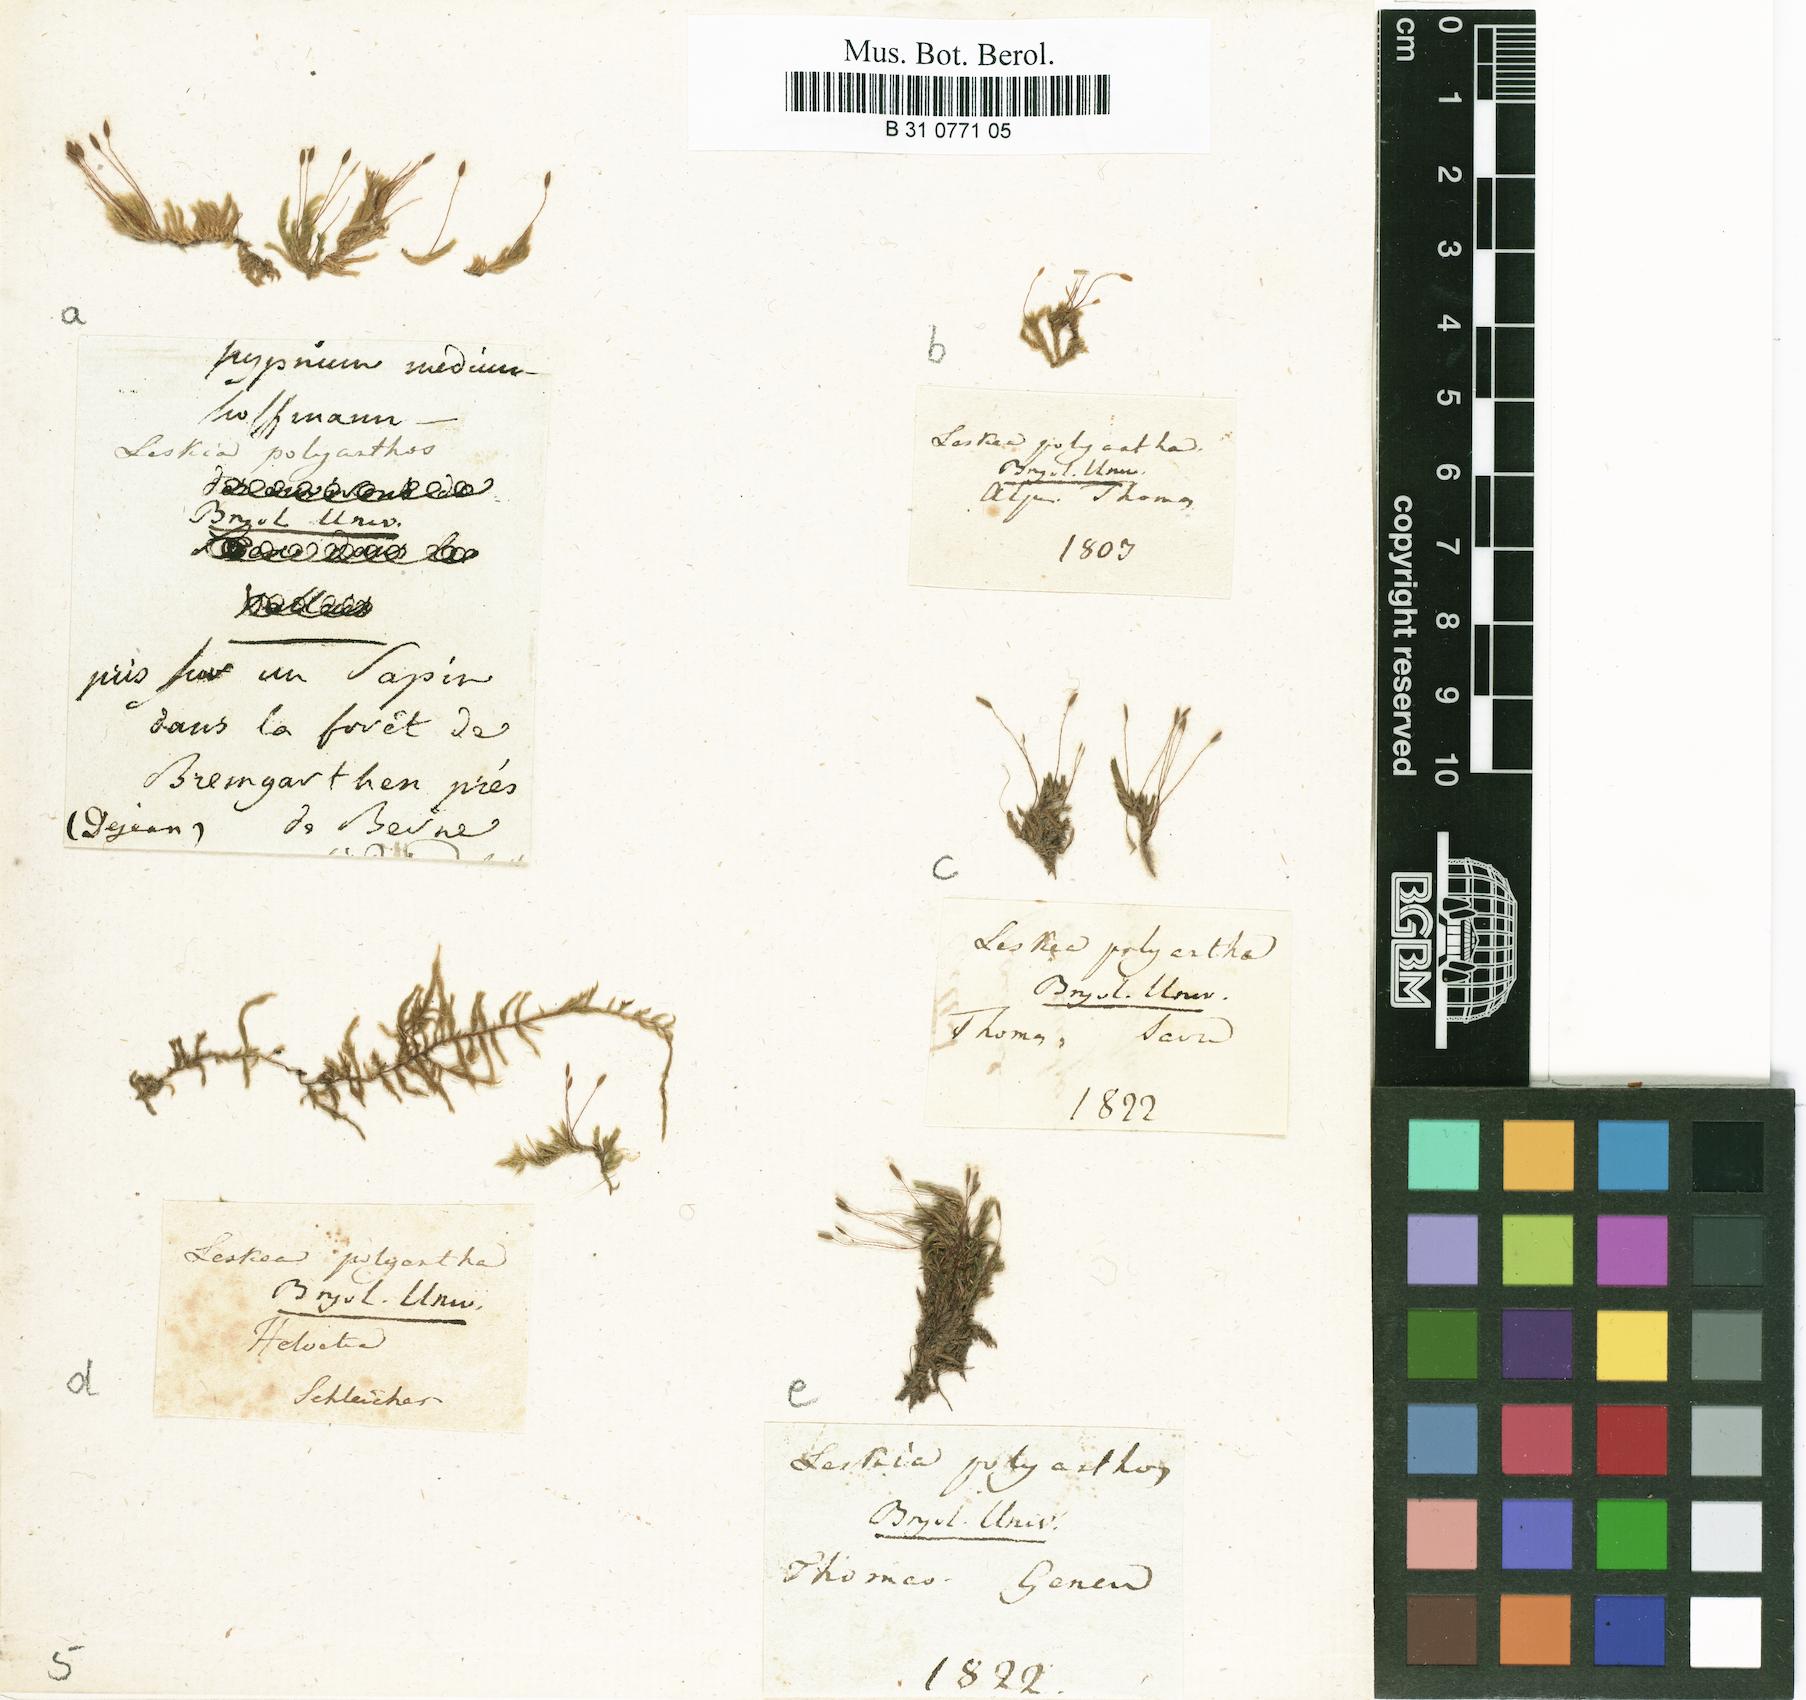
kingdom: Plantae
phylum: Bryophyta
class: Bryopsida
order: Hypnales
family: Pylaisiaceae
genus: Pylaisia
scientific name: Pylaisia polyantha
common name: Many-flowered leskea
